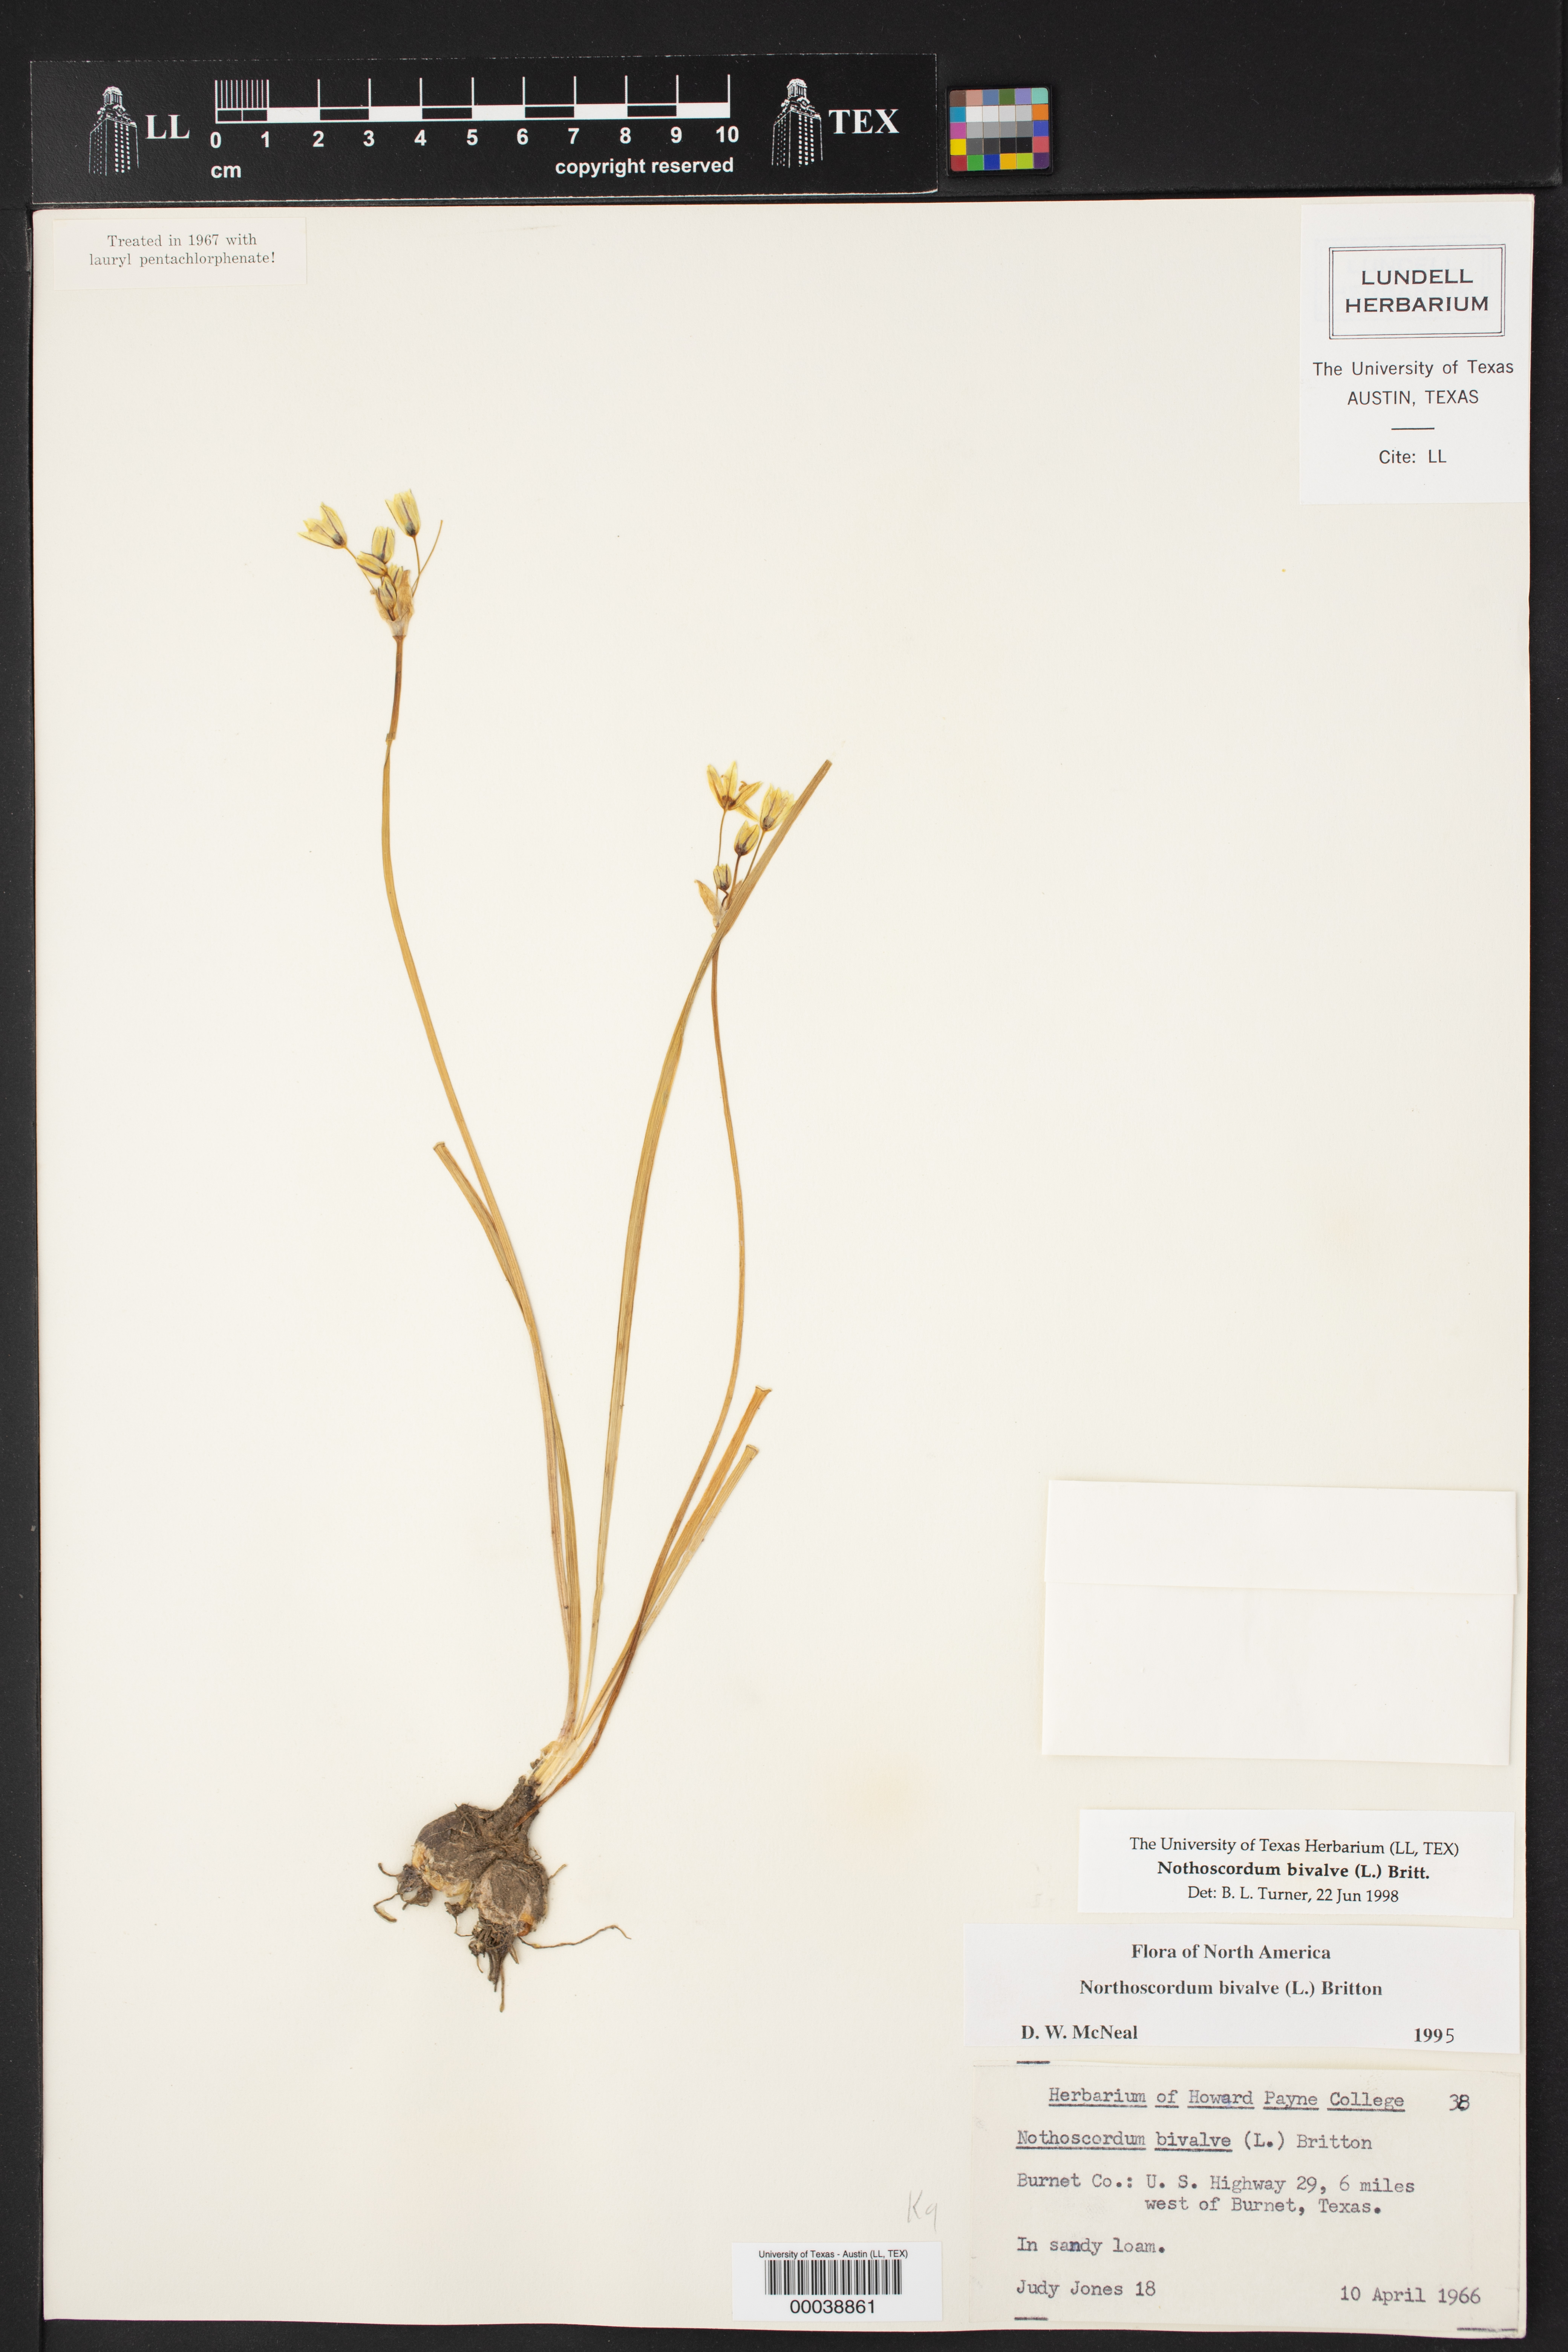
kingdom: Plantae
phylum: Tracheophyta
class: Liliopsida
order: Asparagales
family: Amaryllidaceae
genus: Nothoscordum
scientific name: Nothoscordum bivalve
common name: Crow-poison
